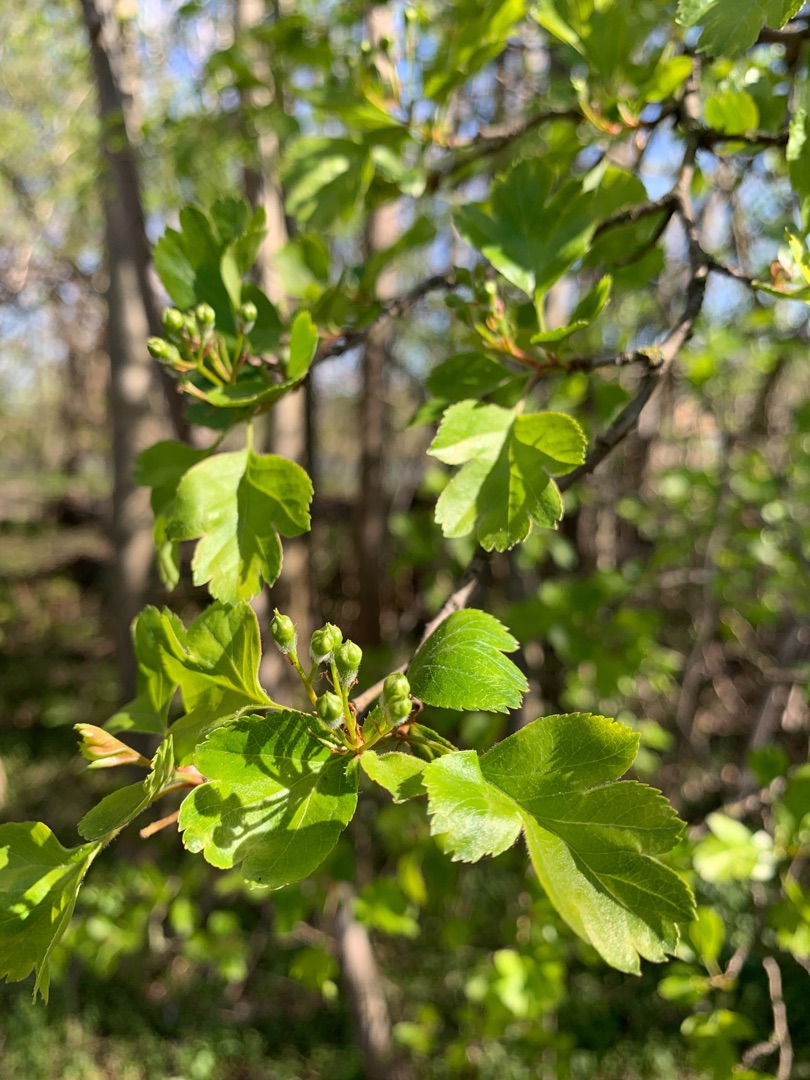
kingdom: Plantae
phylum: Tracheophyta
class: Magnoliopsida
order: Rosales
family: Rosaceae
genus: Crataegus
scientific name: Crataegus macrocarpa
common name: Almindelig hvidtjørn × koral-hvidtjørn
